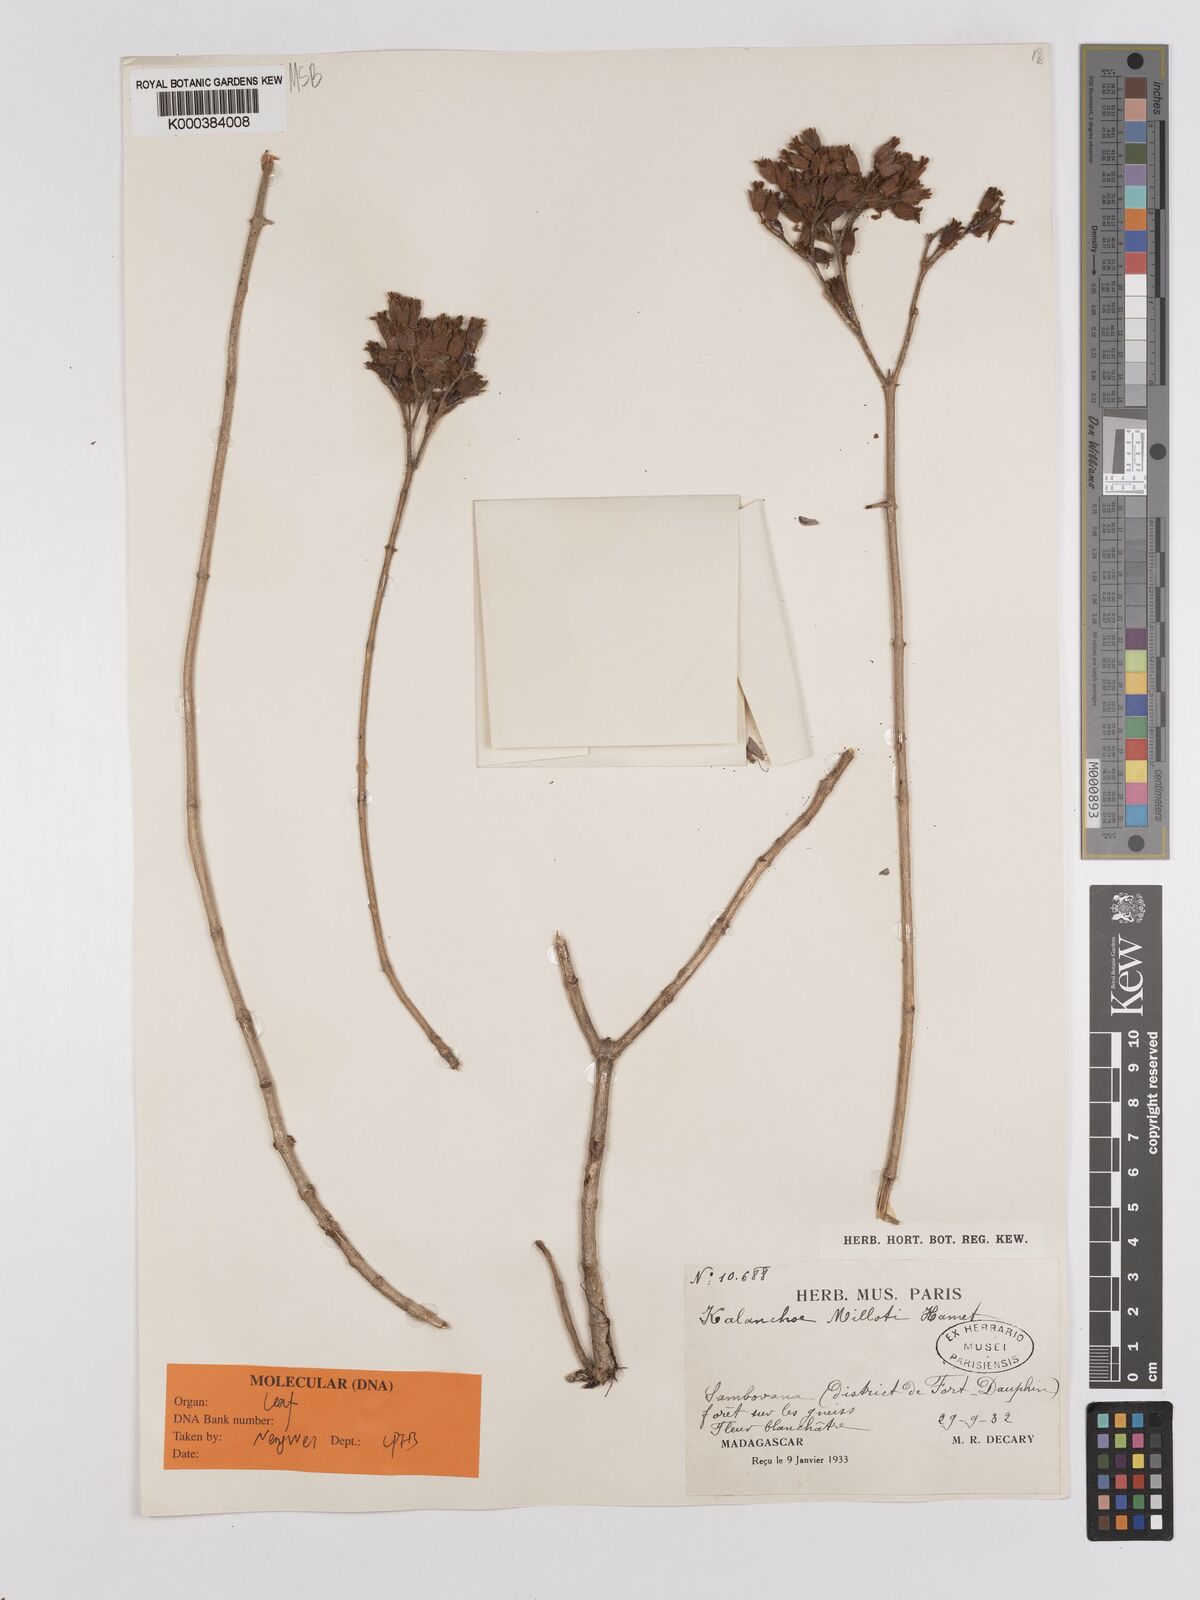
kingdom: Plantae
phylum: Tracheophyta
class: Magnoliopsida
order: Saxifragales
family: Crassulaceae
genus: Kalanchoe
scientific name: Kalanchoe millotii
